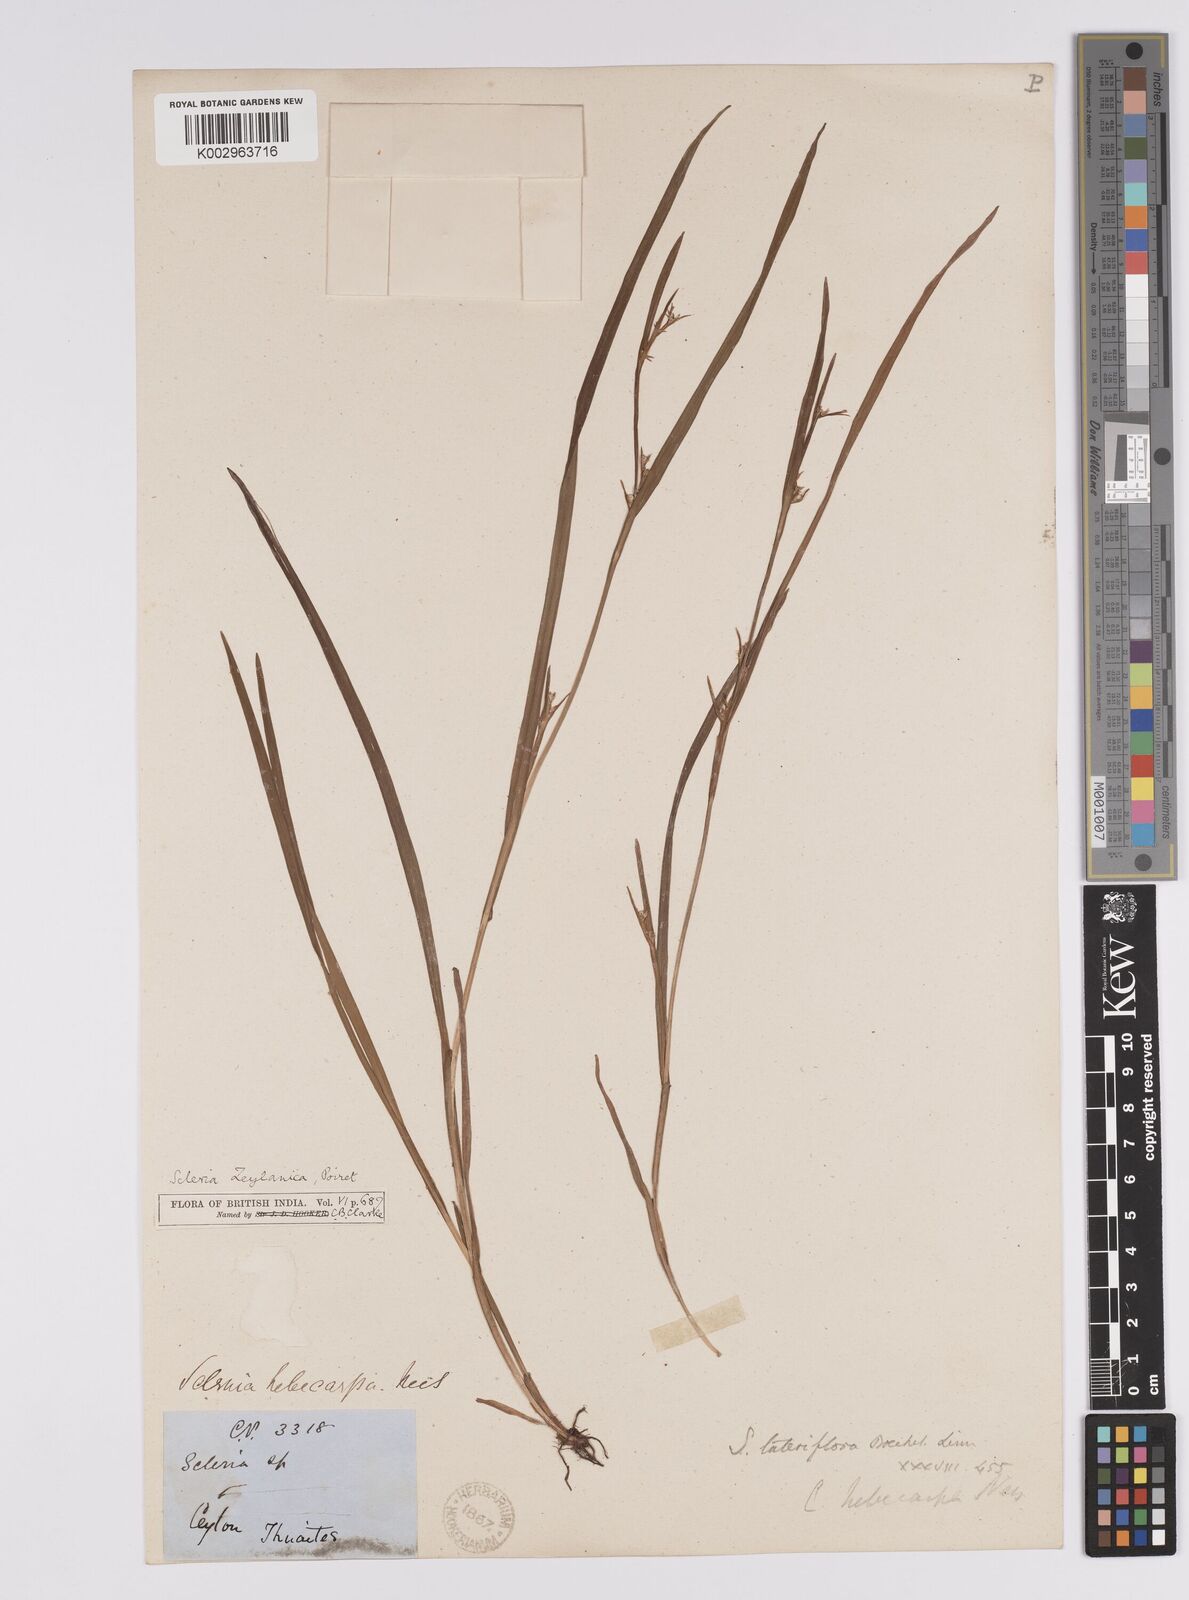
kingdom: Plantae
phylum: Tracheophyta
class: Liliopsida
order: Poales
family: Cyperaceae
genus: Scleria
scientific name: Scleria levis
